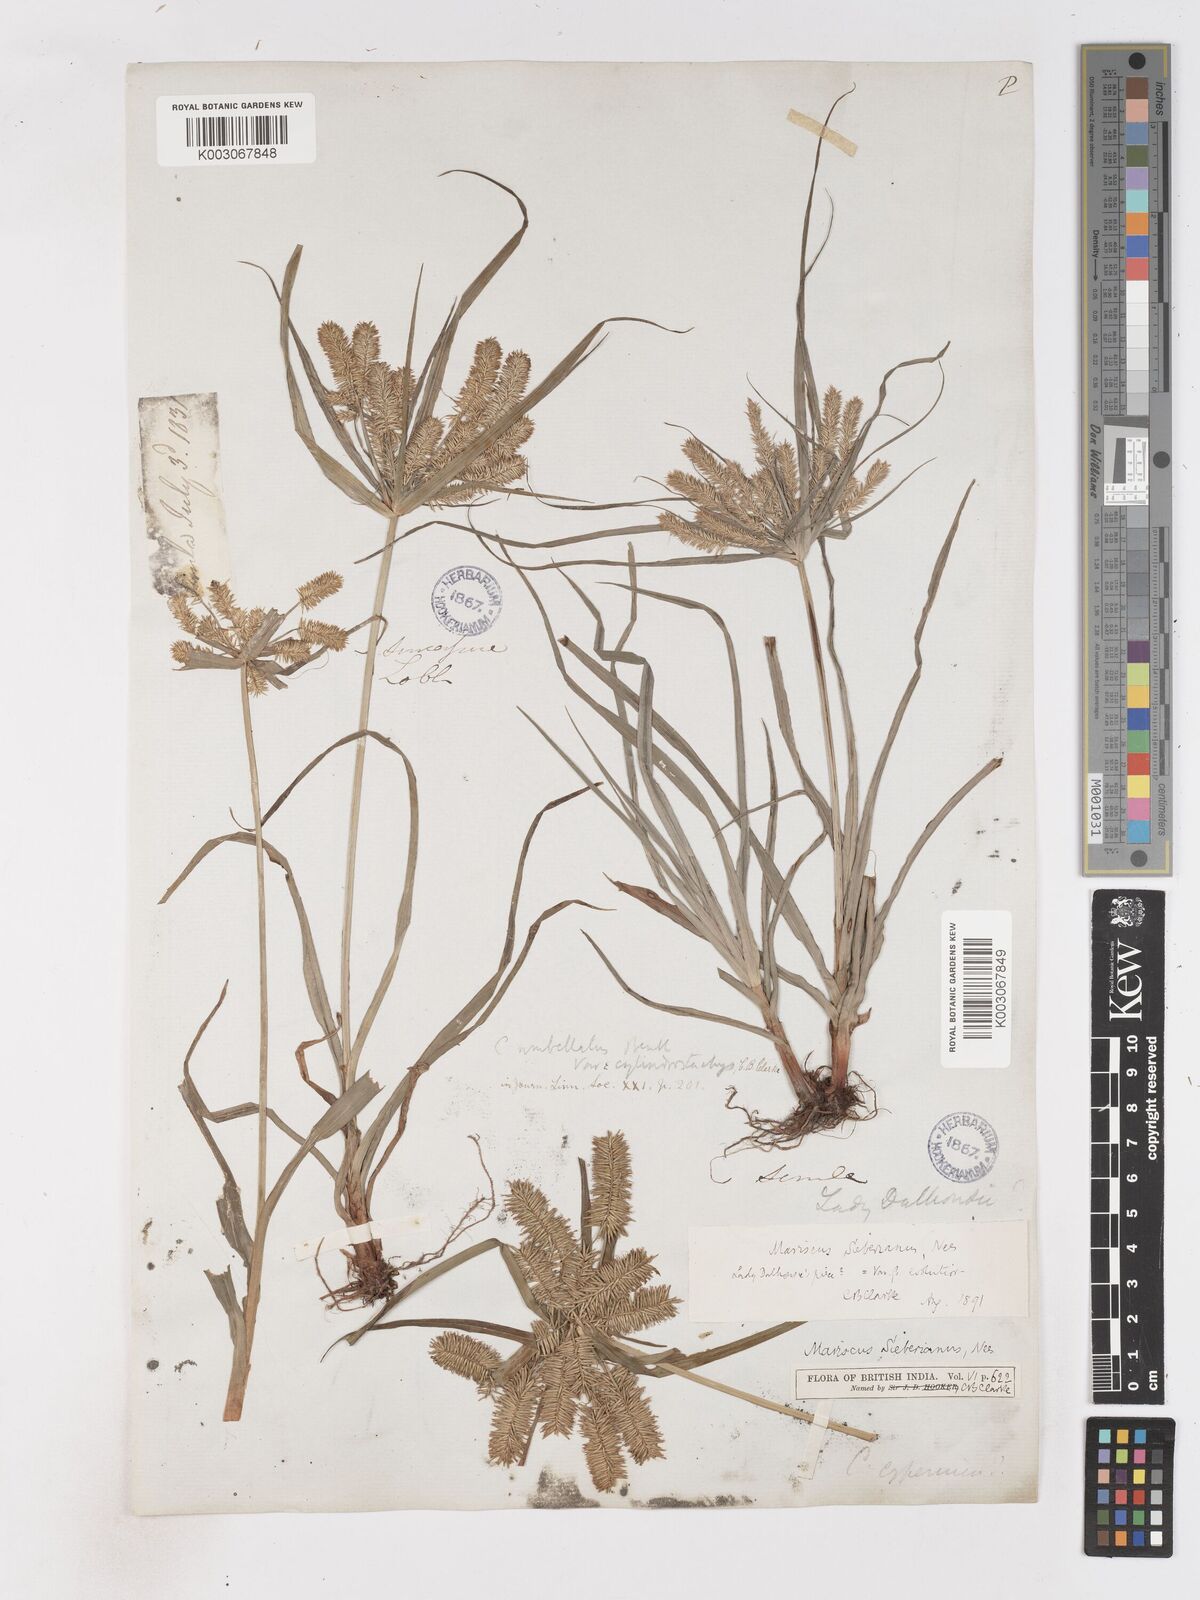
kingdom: Plantae
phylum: Tracheophyta
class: Liliopsida
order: Poales
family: Cyperaceae
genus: Cyperus
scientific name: Cyperus cyperoides
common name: Pacific island flat sedge
